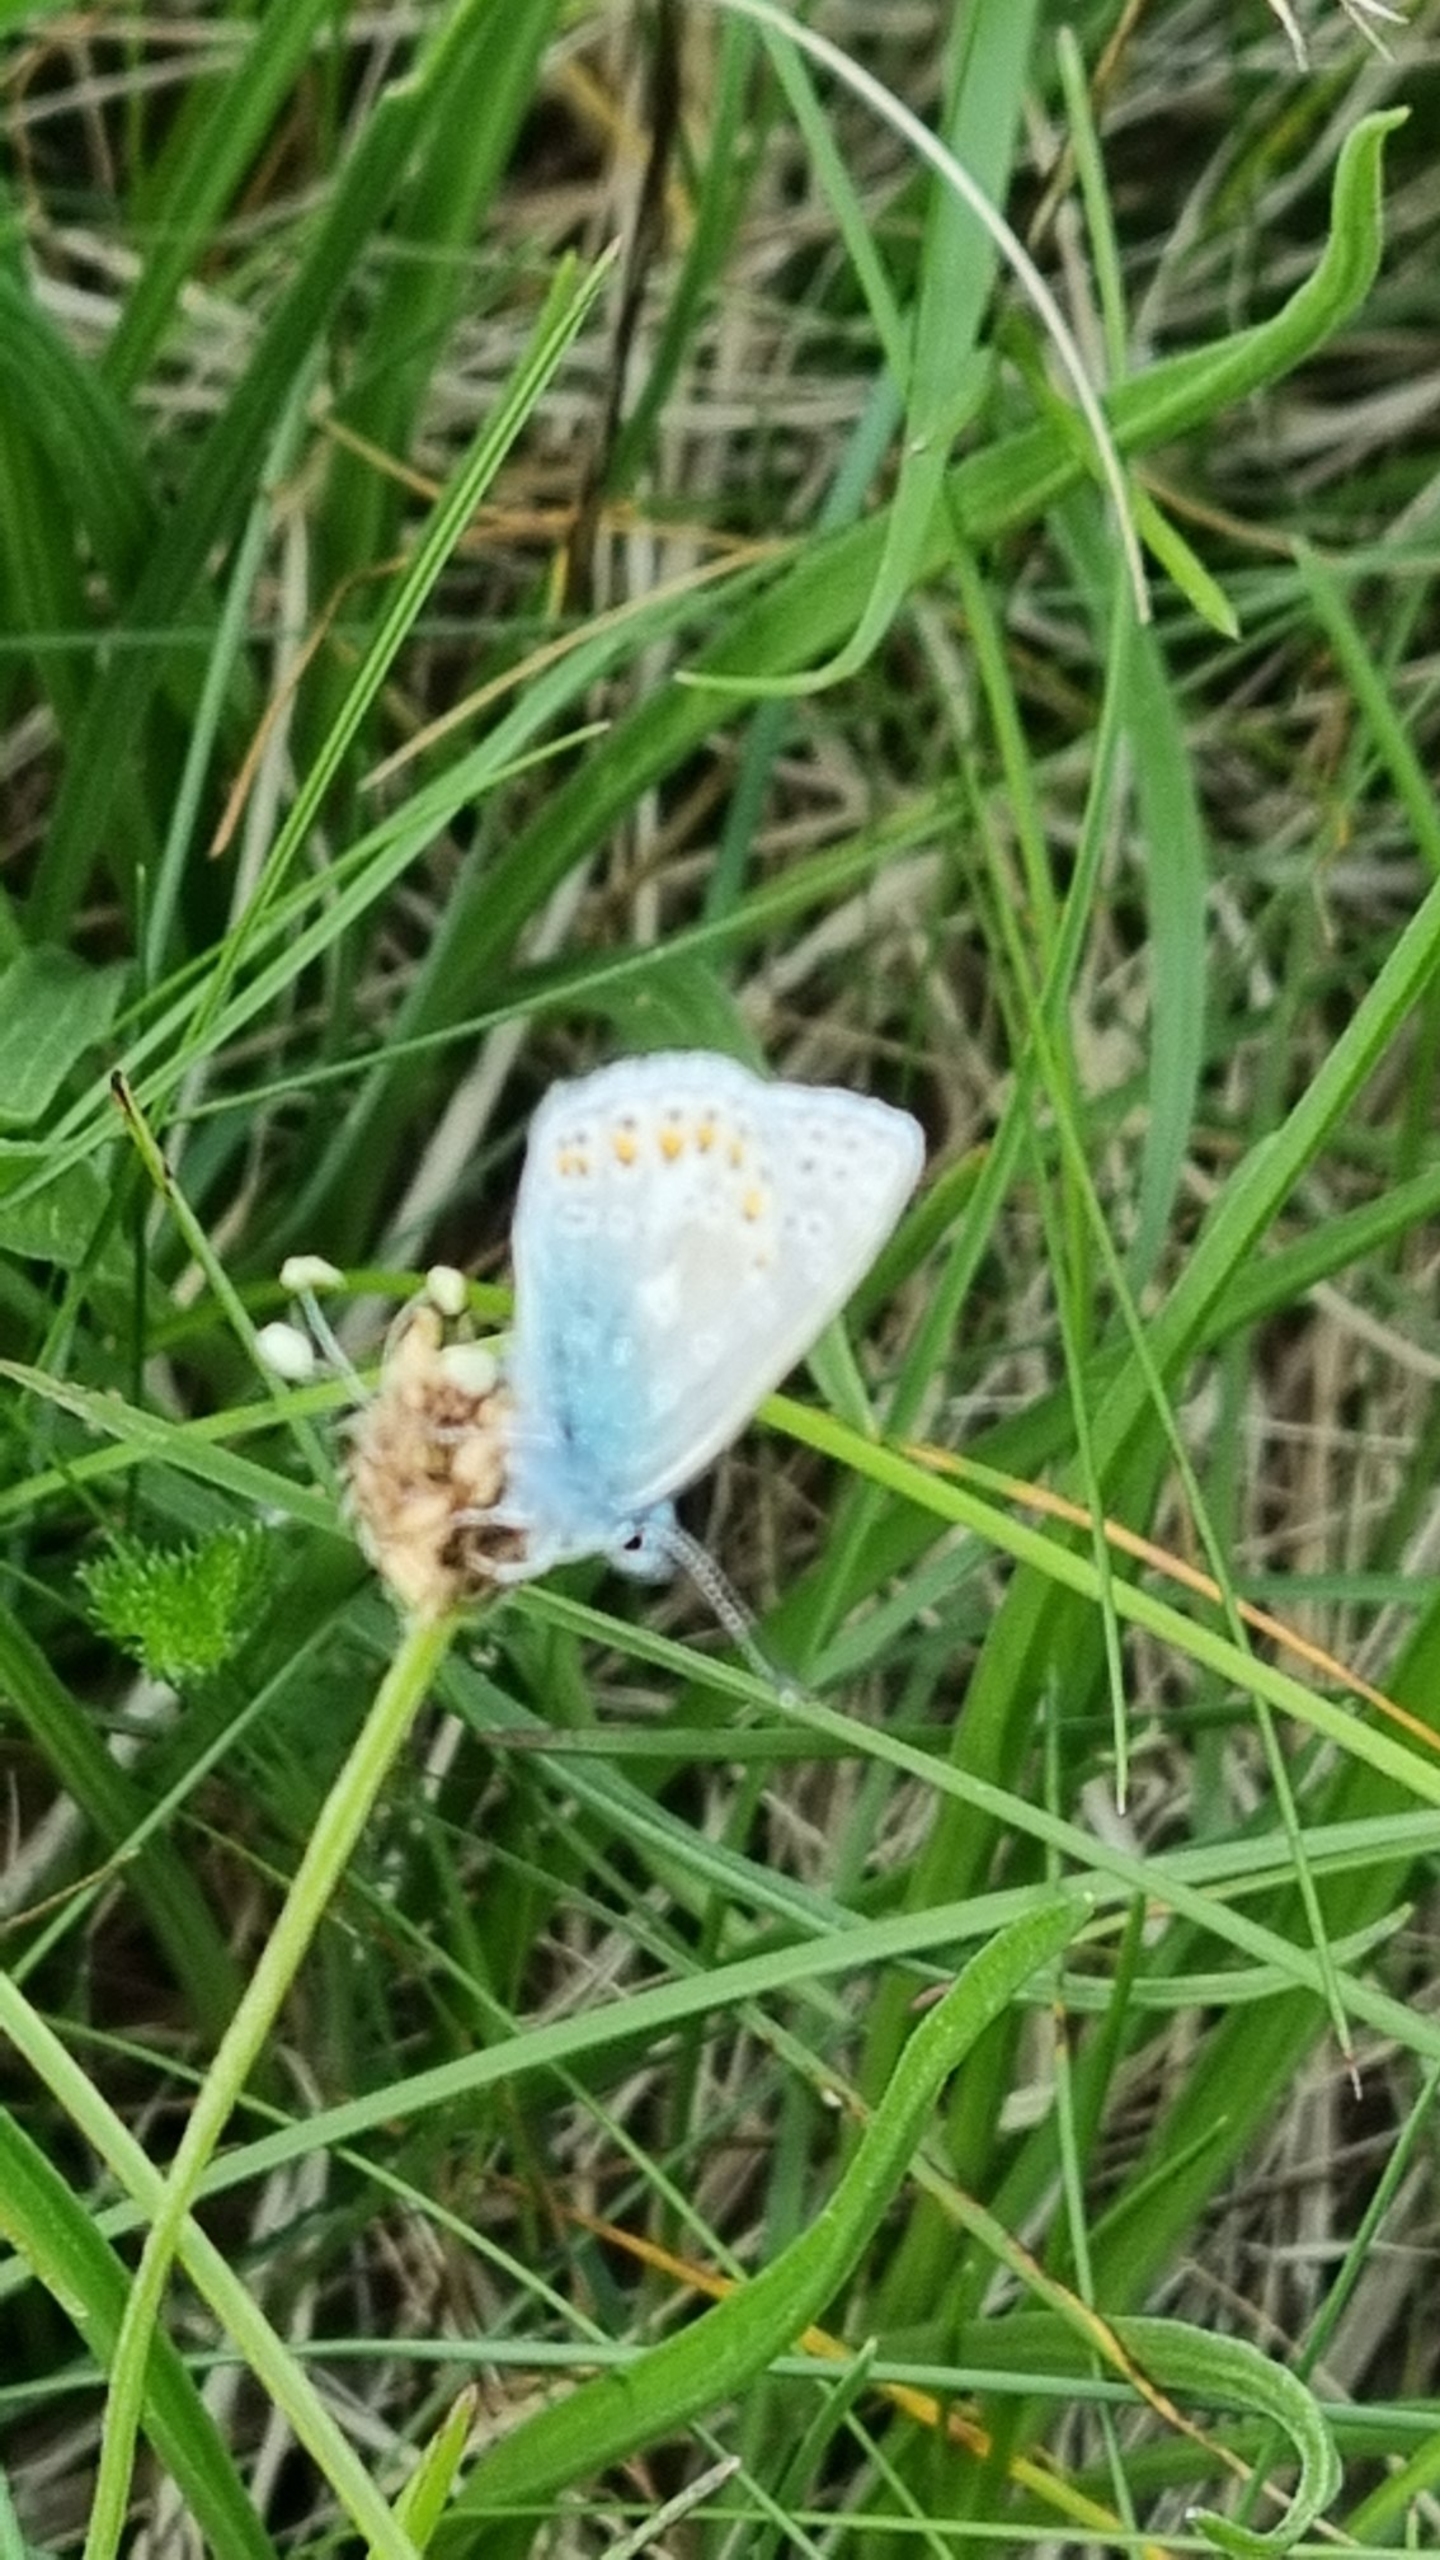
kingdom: Animalia
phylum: Arthropoda
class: Insecta
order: Lepidoptera
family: Lycaenidae
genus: Polyommatus
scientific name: Polyommatus icarus
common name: Almindelig blåfugl
